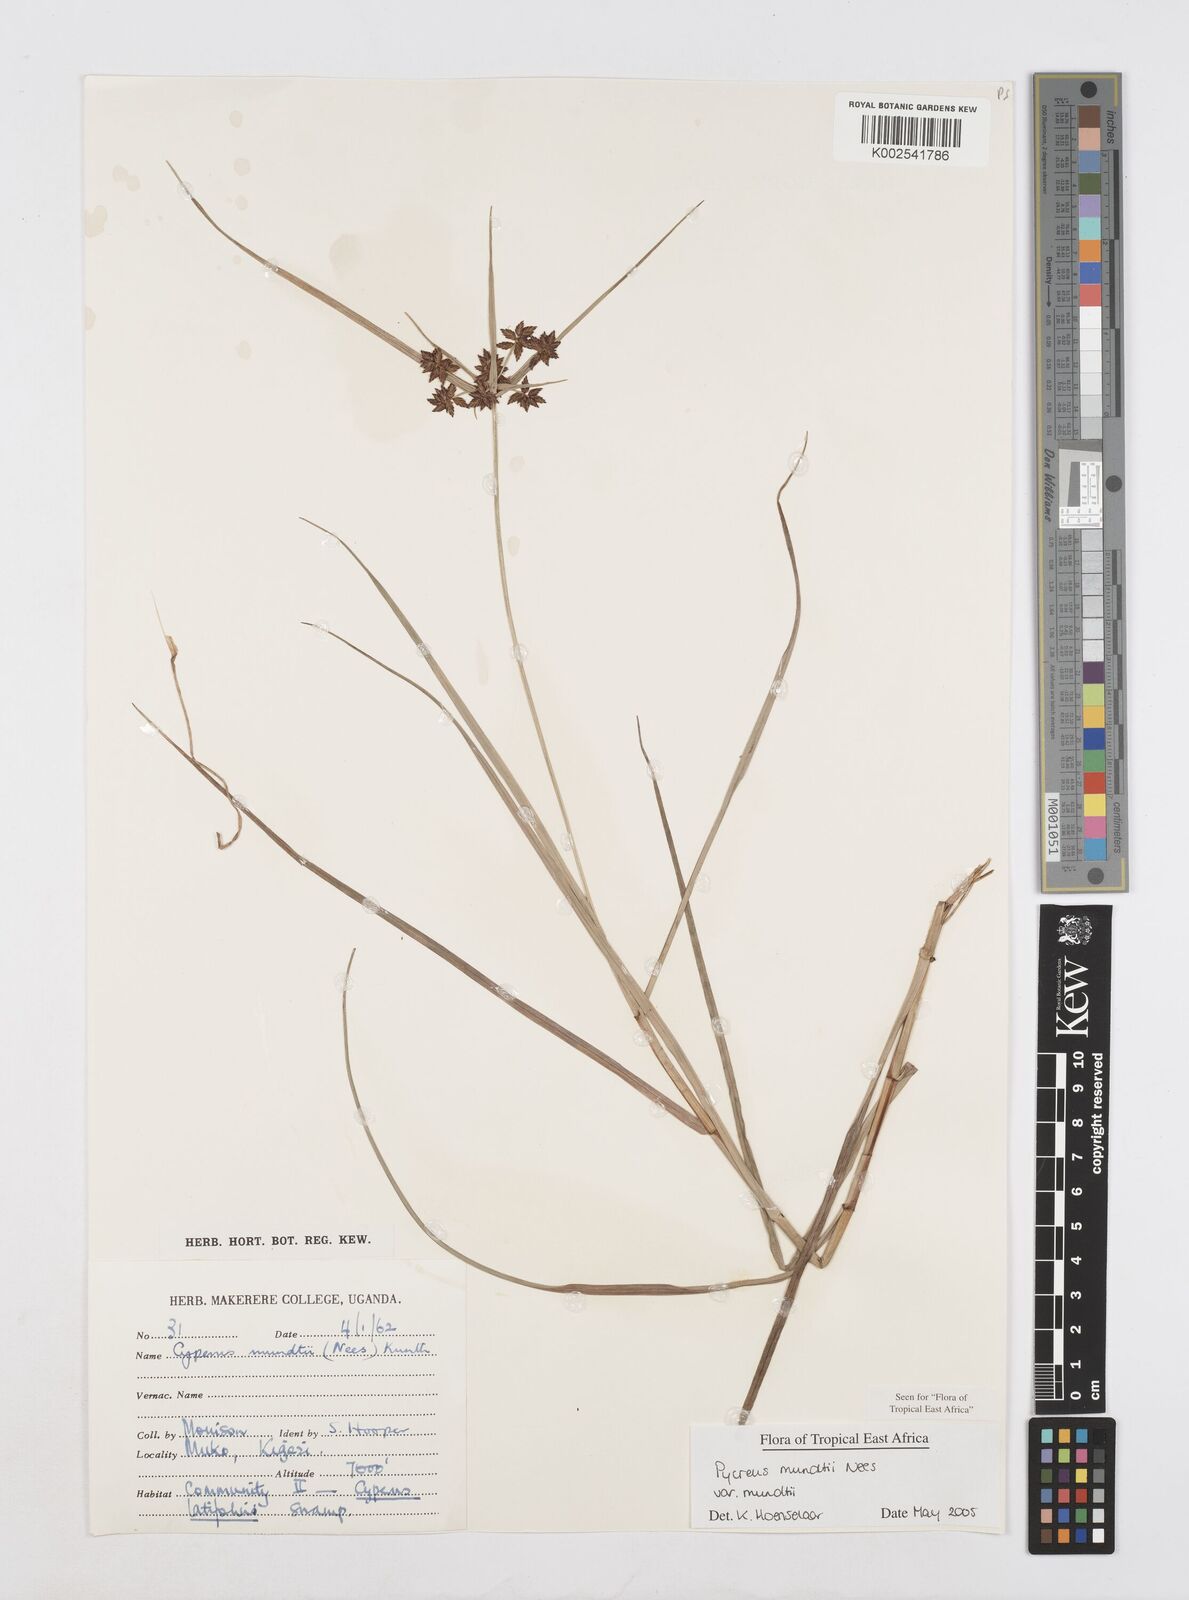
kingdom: Plantae
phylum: Tracheophyta
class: Liliopsida
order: Poales
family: Cyperaceae
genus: Cyperus
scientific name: Cyperus mundii
